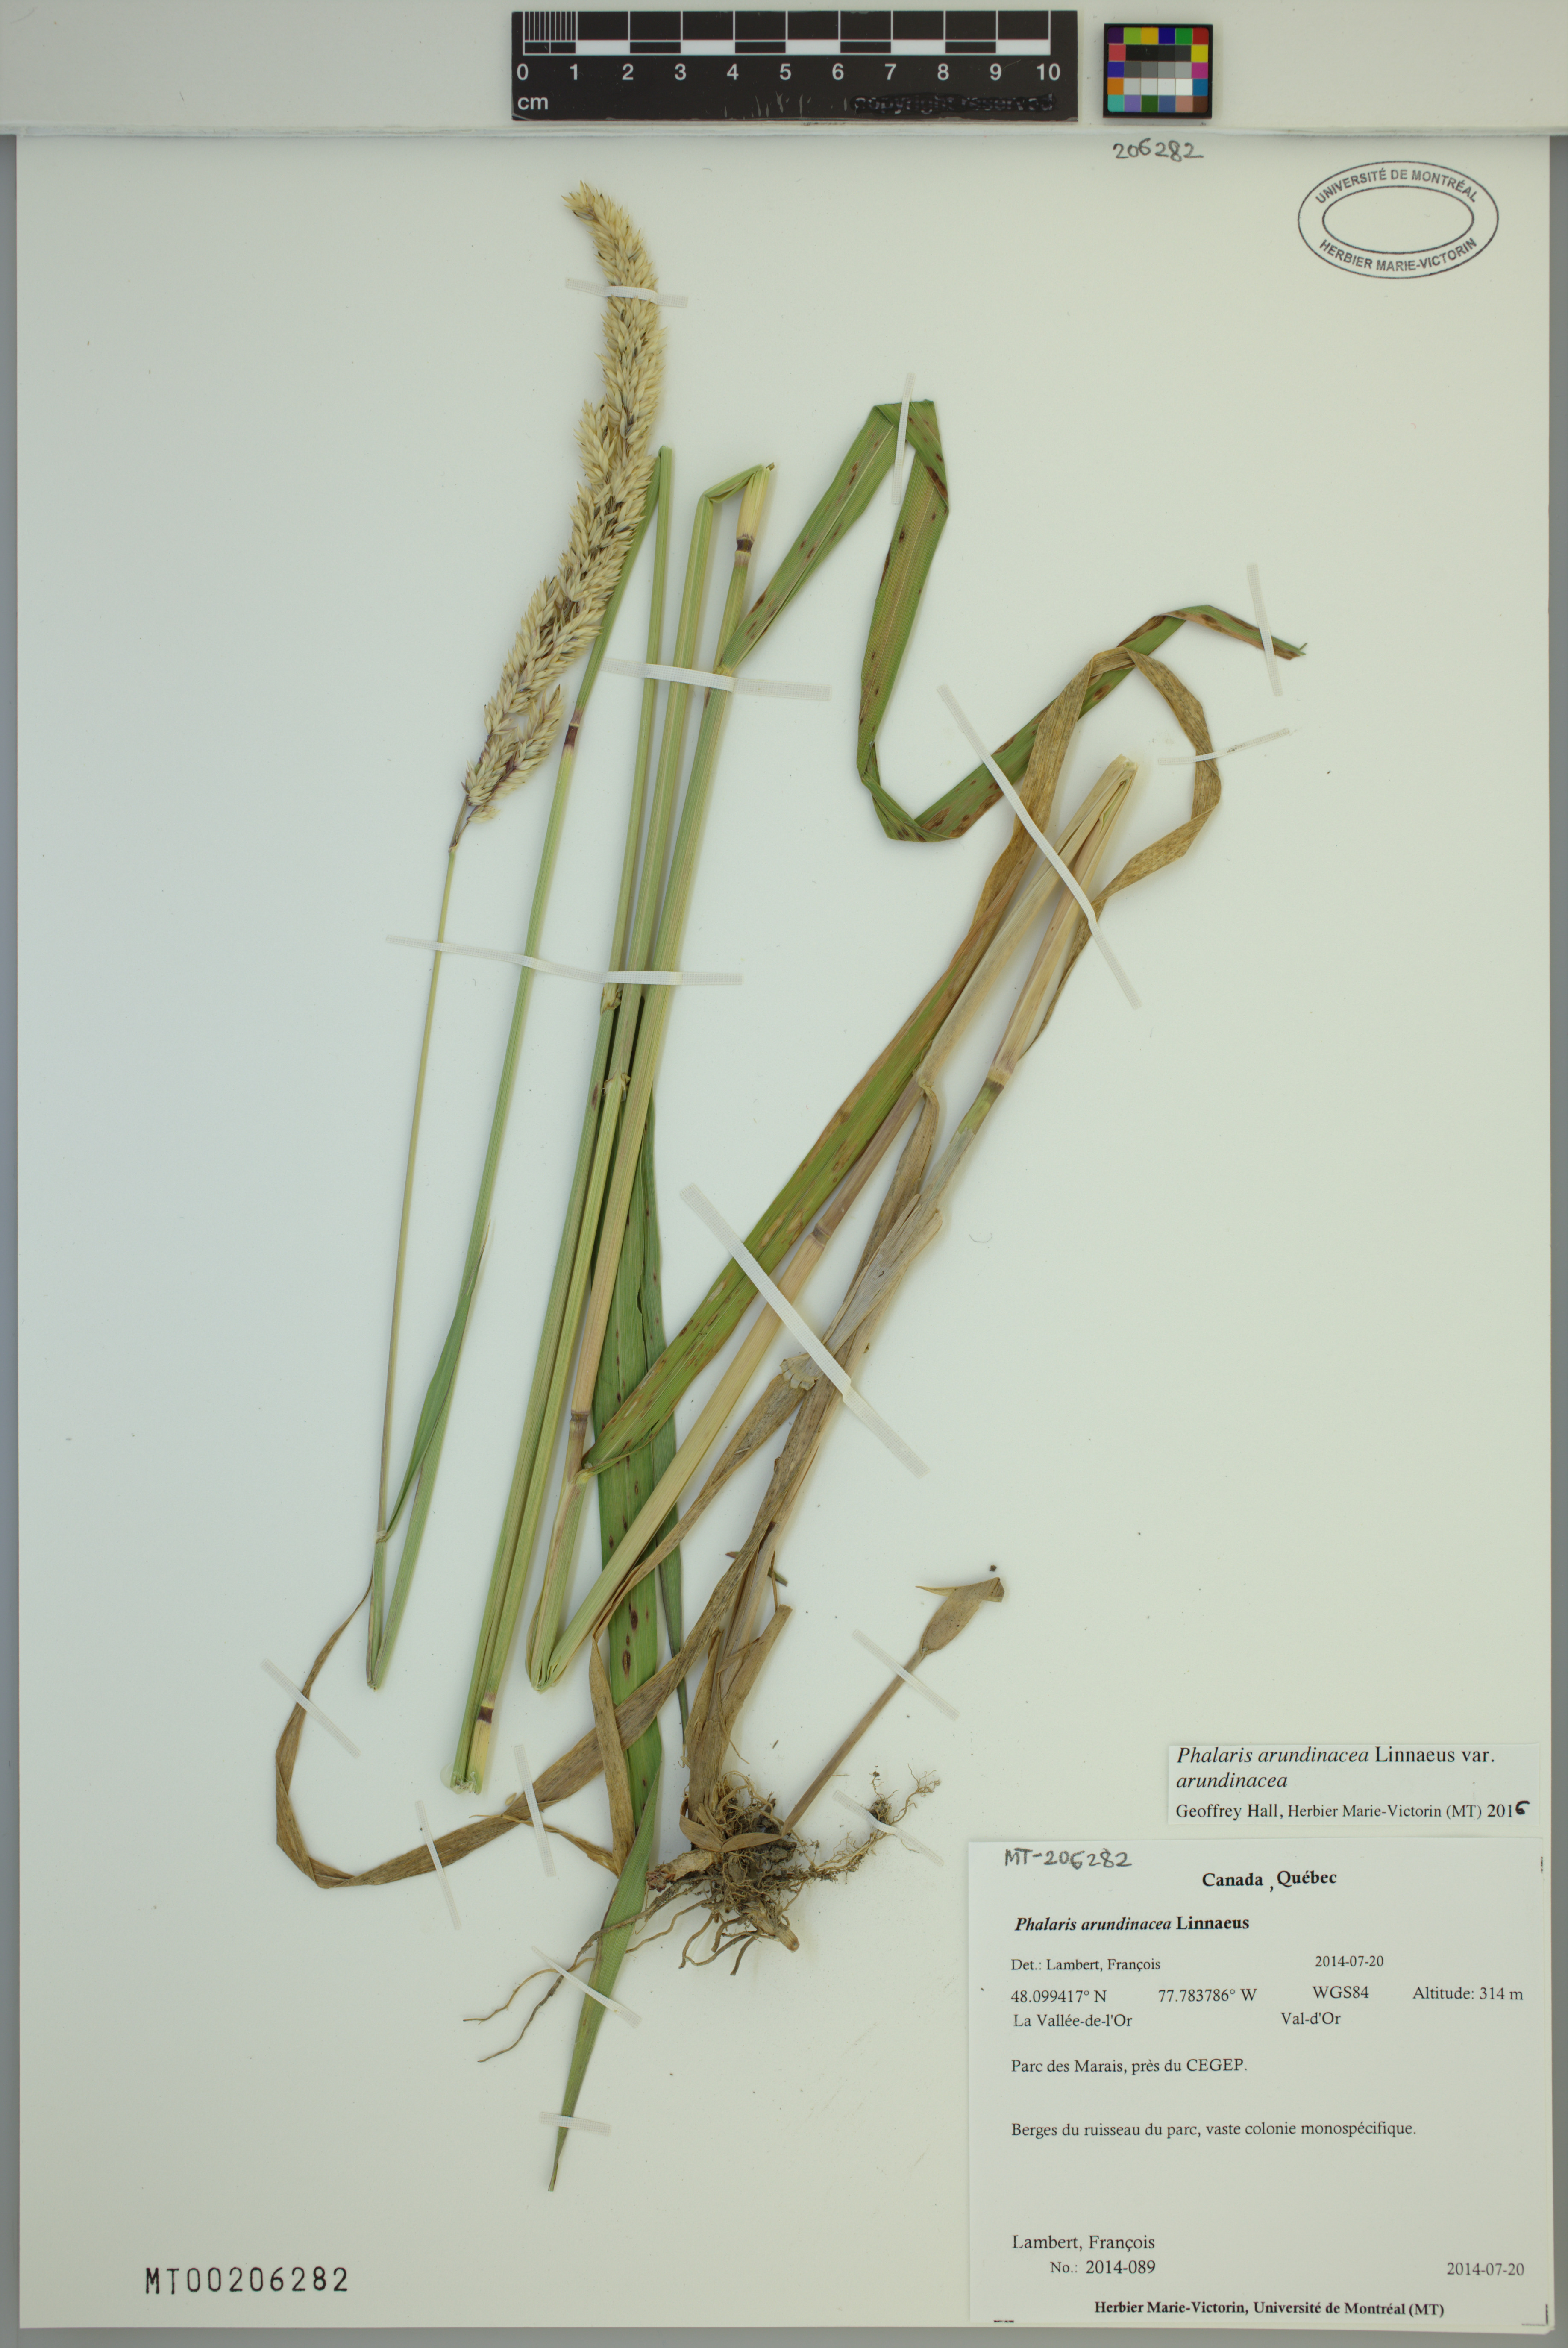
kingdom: Plantae
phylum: Tracheophyta
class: Liliopsida
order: Poales
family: Poaceae
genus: Phalaris
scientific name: Phalaris arundinacea
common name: Reed canary-grass
